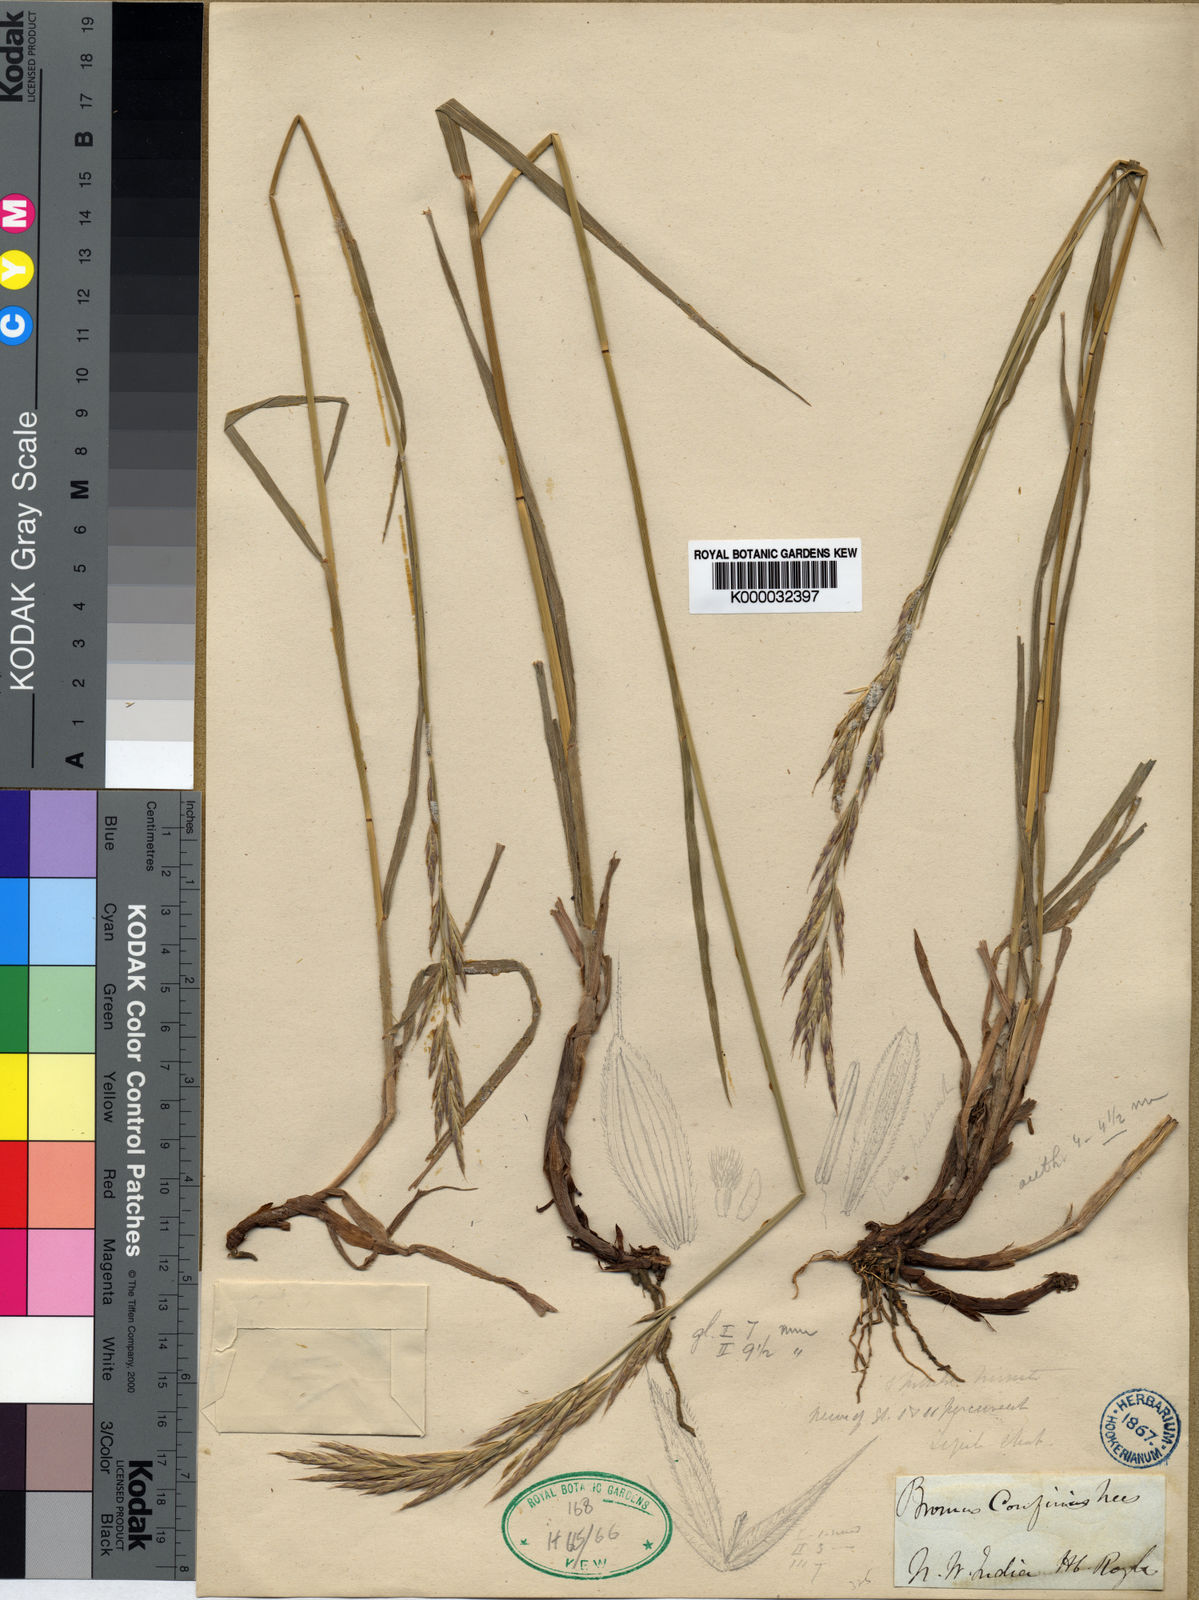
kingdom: Plantae
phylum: Tracheophyta
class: Liliopsida
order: Poales
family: Poaceae
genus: Bromus
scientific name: Bromus confinis
